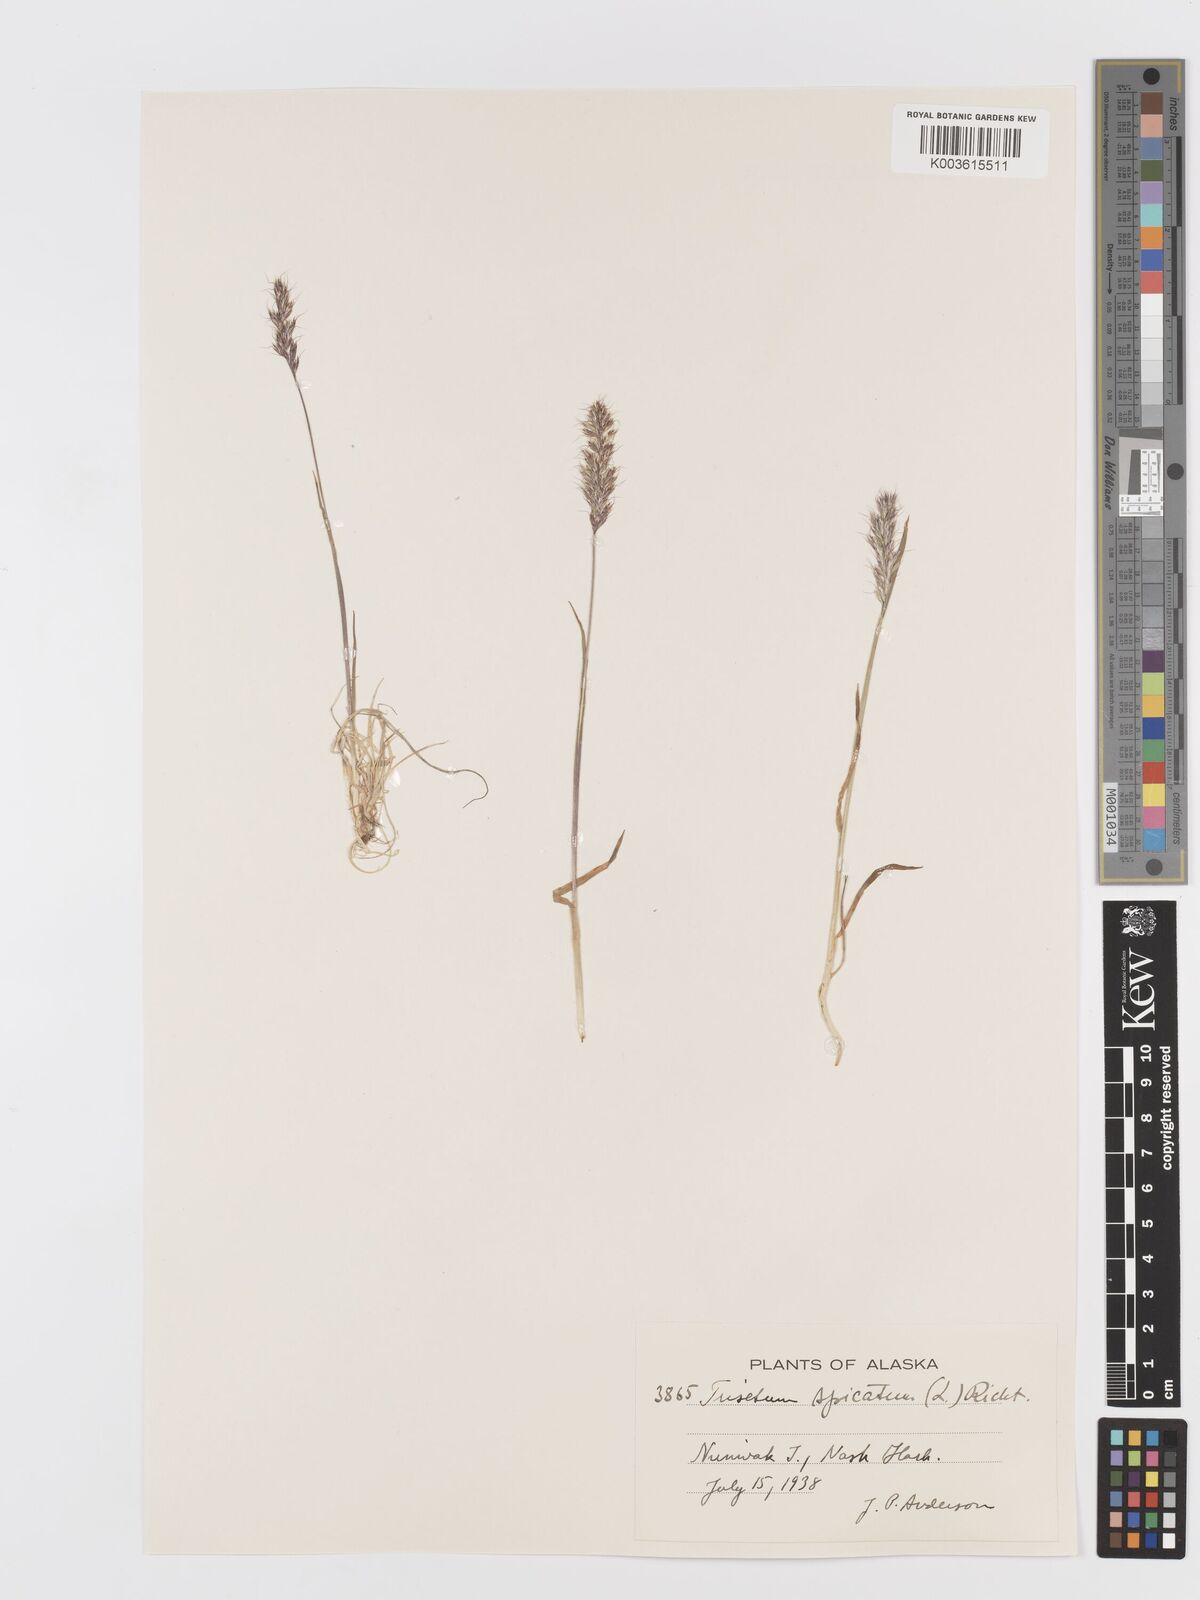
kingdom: Plantae
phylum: Tracheophyta
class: Liliopsida
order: Poales
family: Poaceae
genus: Koeleria
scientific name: Koeleria spicata
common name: Mountain trisetum
